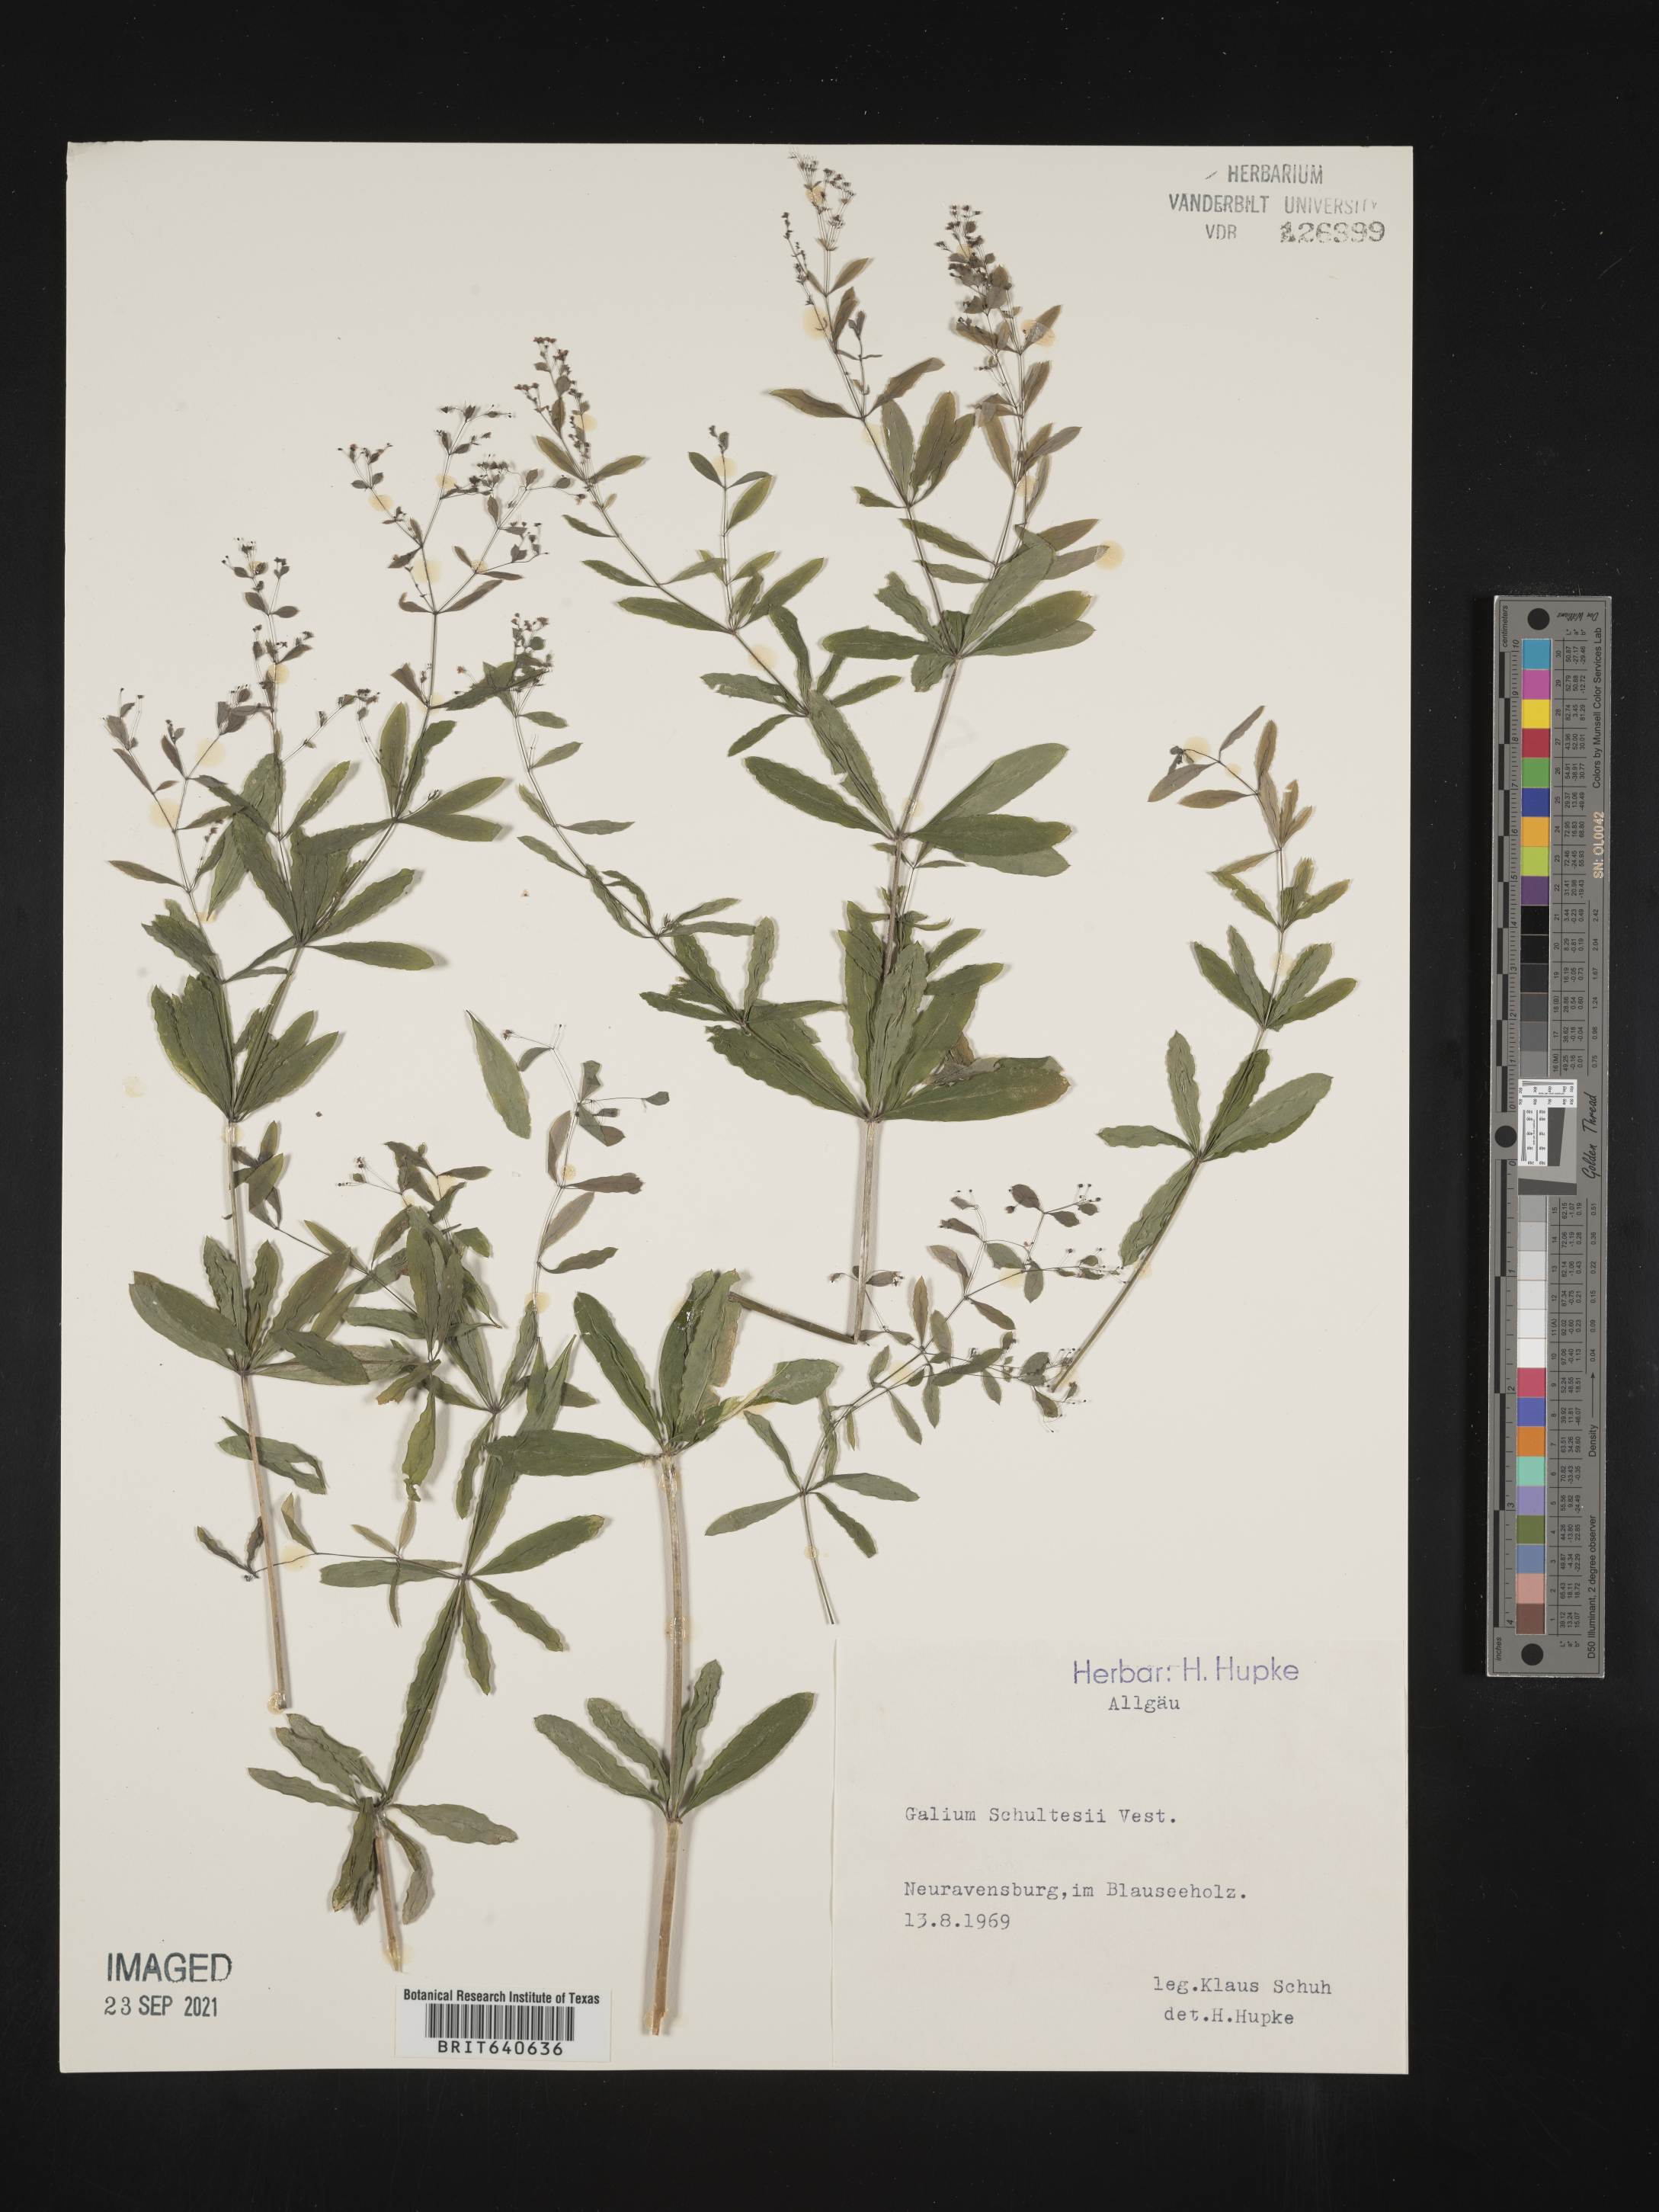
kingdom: Plantae
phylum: Tracheophyta
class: Magnoliopsida
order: Gentianales
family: Rubiaceae
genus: Galium
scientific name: Galium
